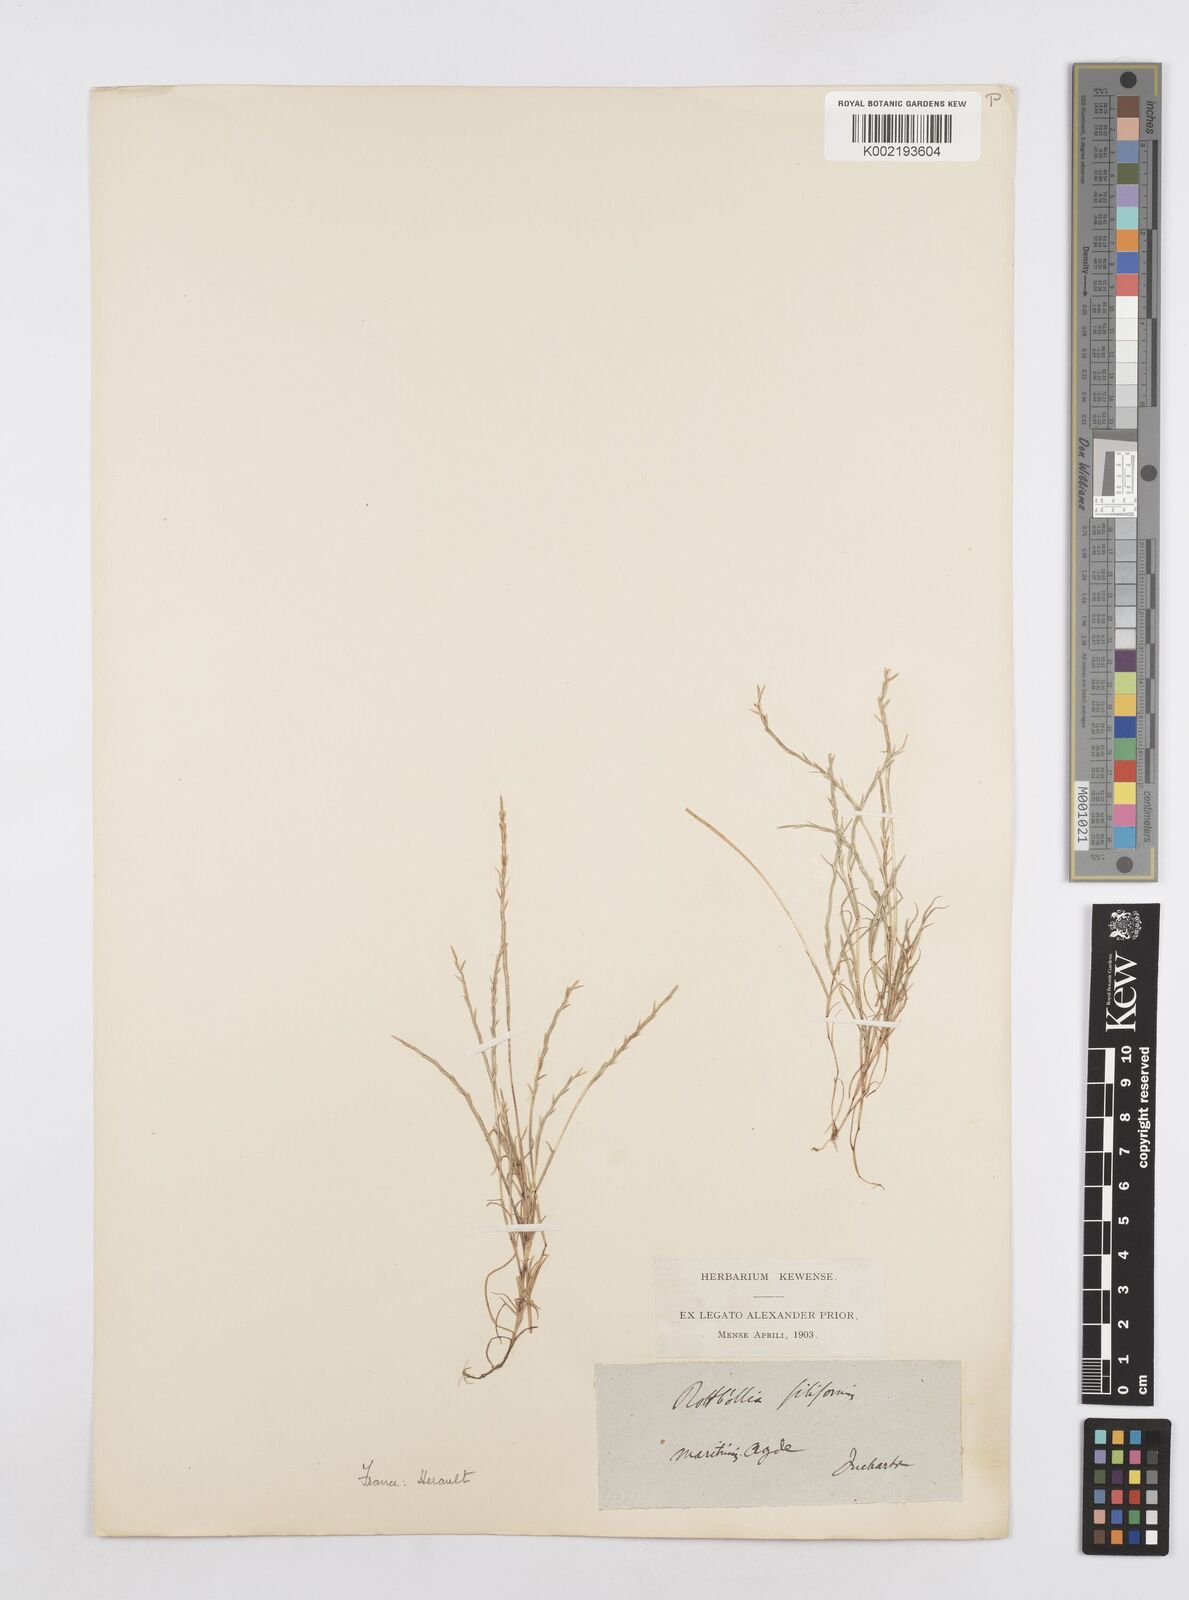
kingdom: Plantae
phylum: Tracheophyta
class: Liliopsida
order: Poales
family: Poaceae
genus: Parapholis
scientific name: Parapholis filiformis
